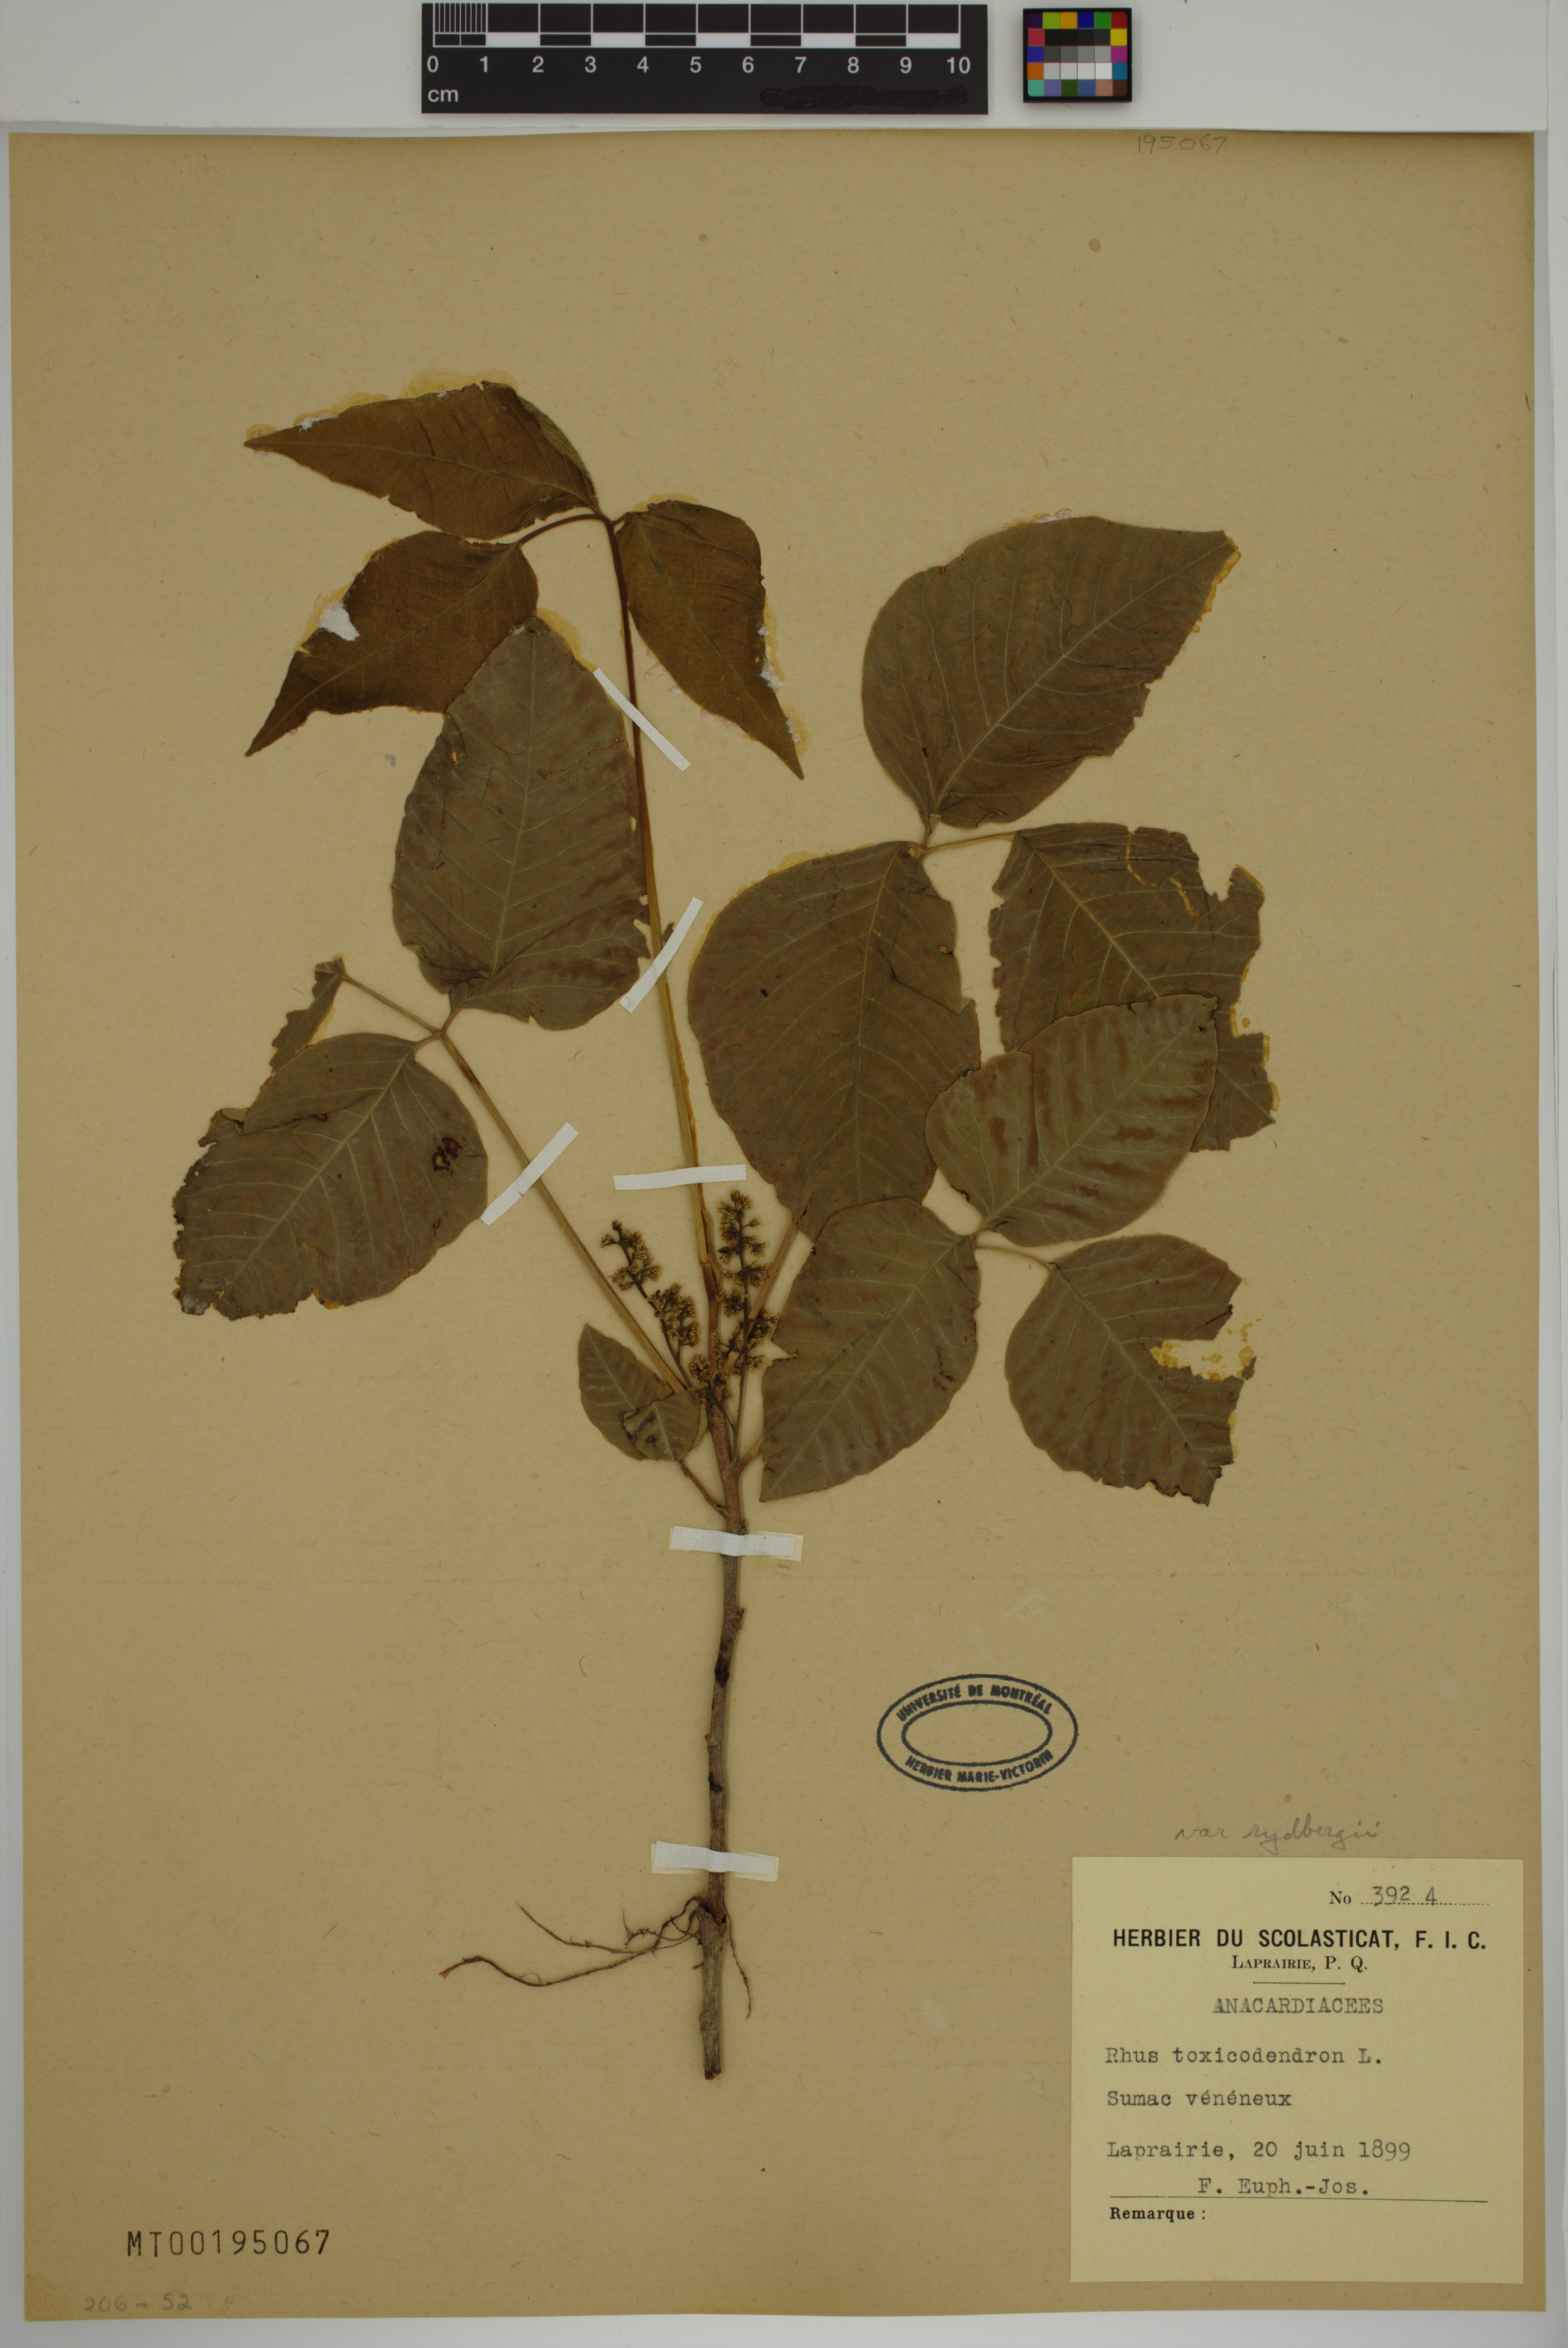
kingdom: Plantae
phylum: Tracheophyta
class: Magnoliopsida
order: Sapindales
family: Anacardiaceae
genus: Toxicodendron
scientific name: Toxicodendron rydbergii
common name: Rydberg's poison-ivy
